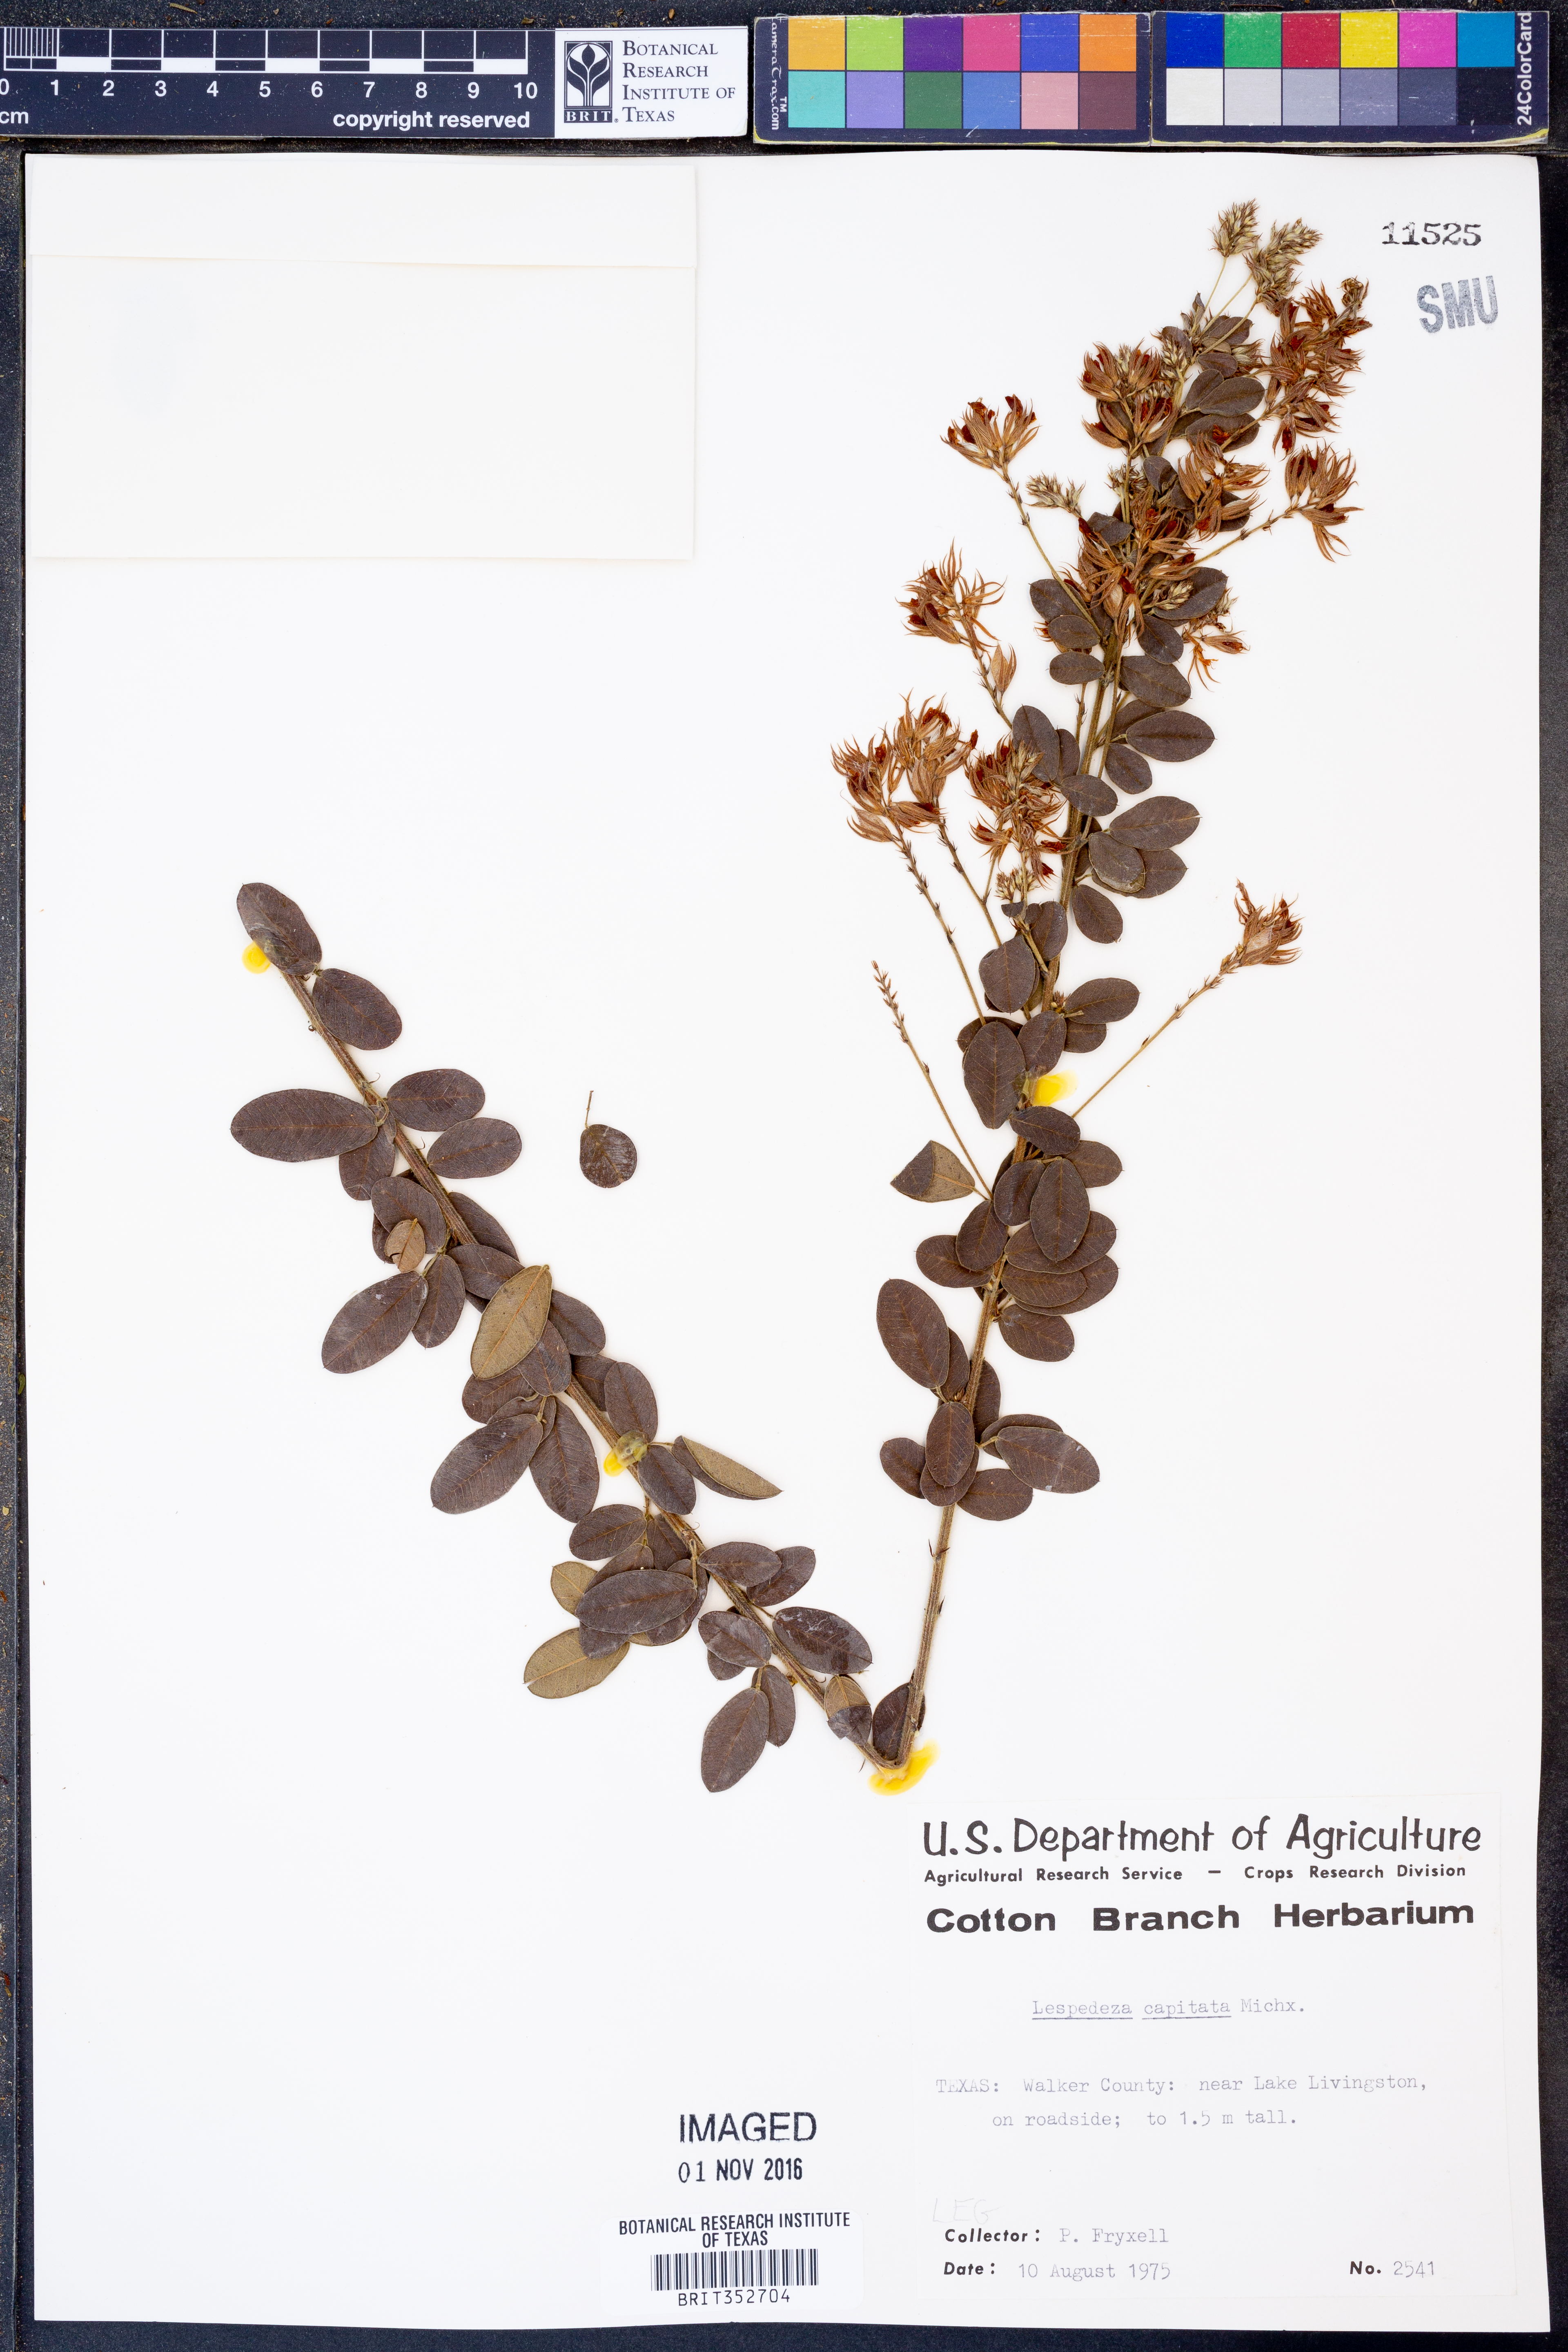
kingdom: Plantae
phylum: Tracheophyta
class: Magnoliopsida
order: Fabales
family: Fabaceae
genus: Lespedeza
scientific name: Lespedeza capitata
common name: Dusty clover
